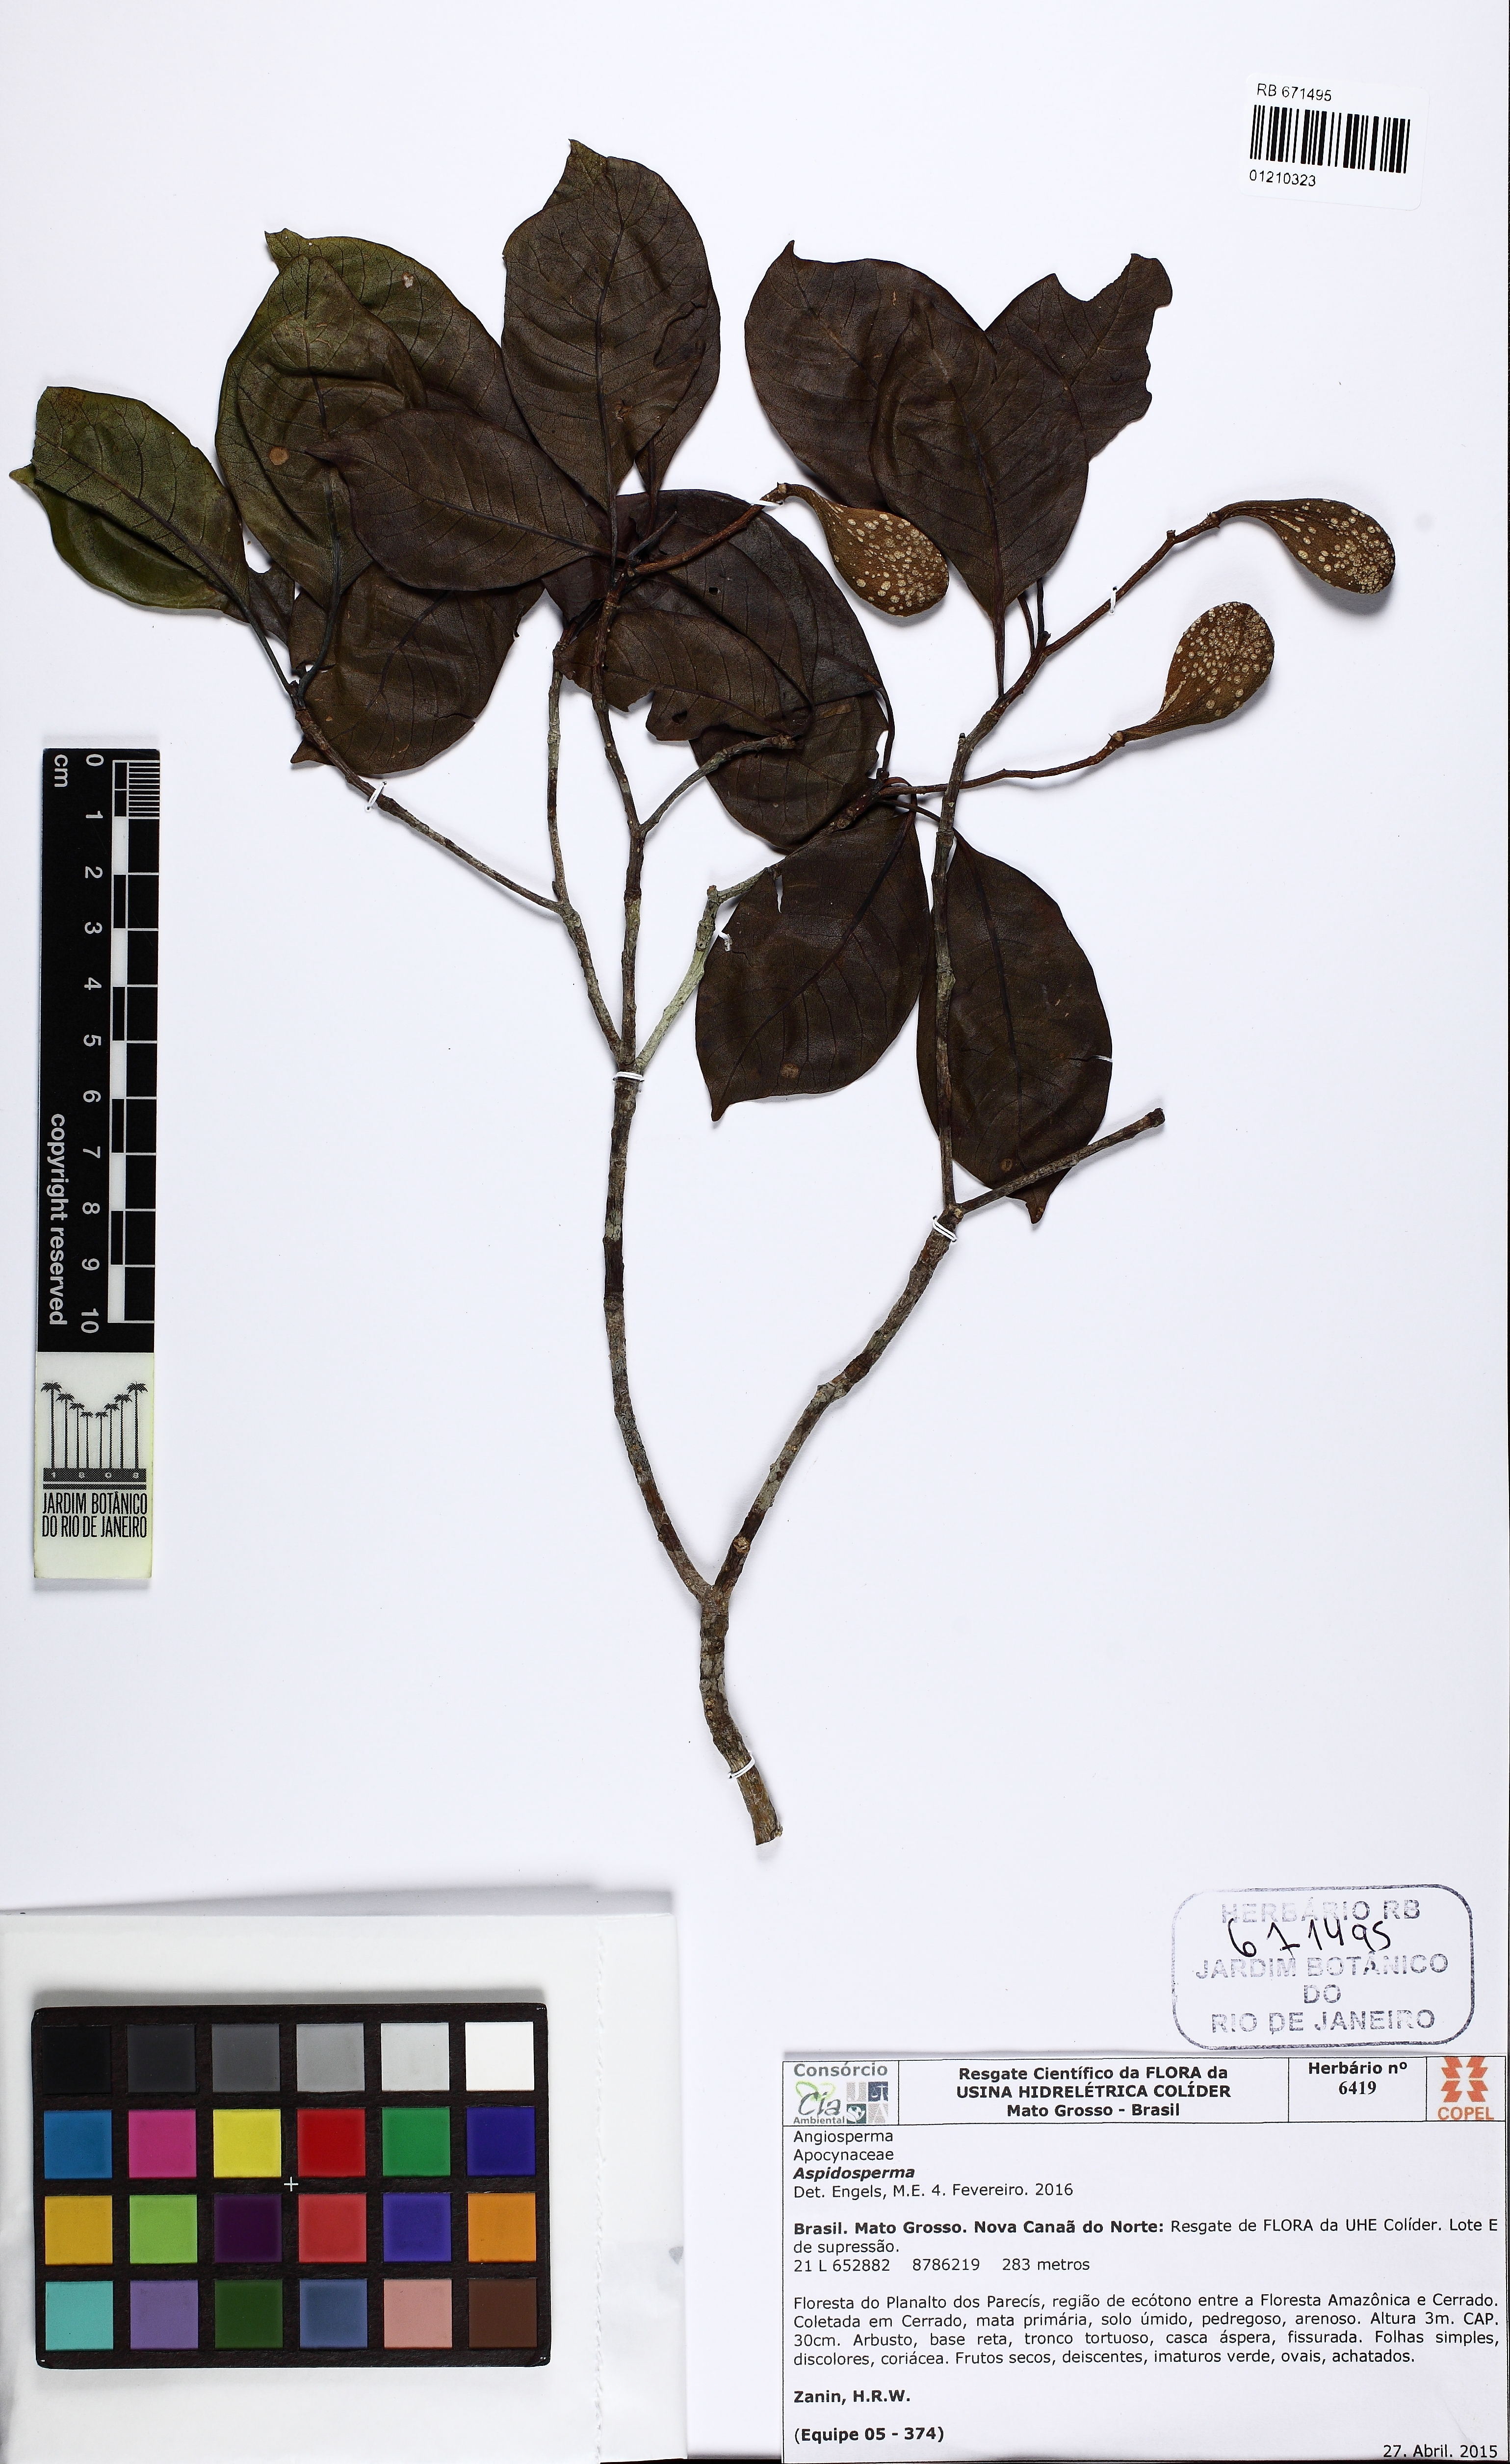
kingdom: Plantae
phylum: Tracheophyta
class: Magnoliopsida
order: Gentianales
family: Apocynaceae
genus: Aspidosperma
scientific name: Aspidosperma multiflorum
